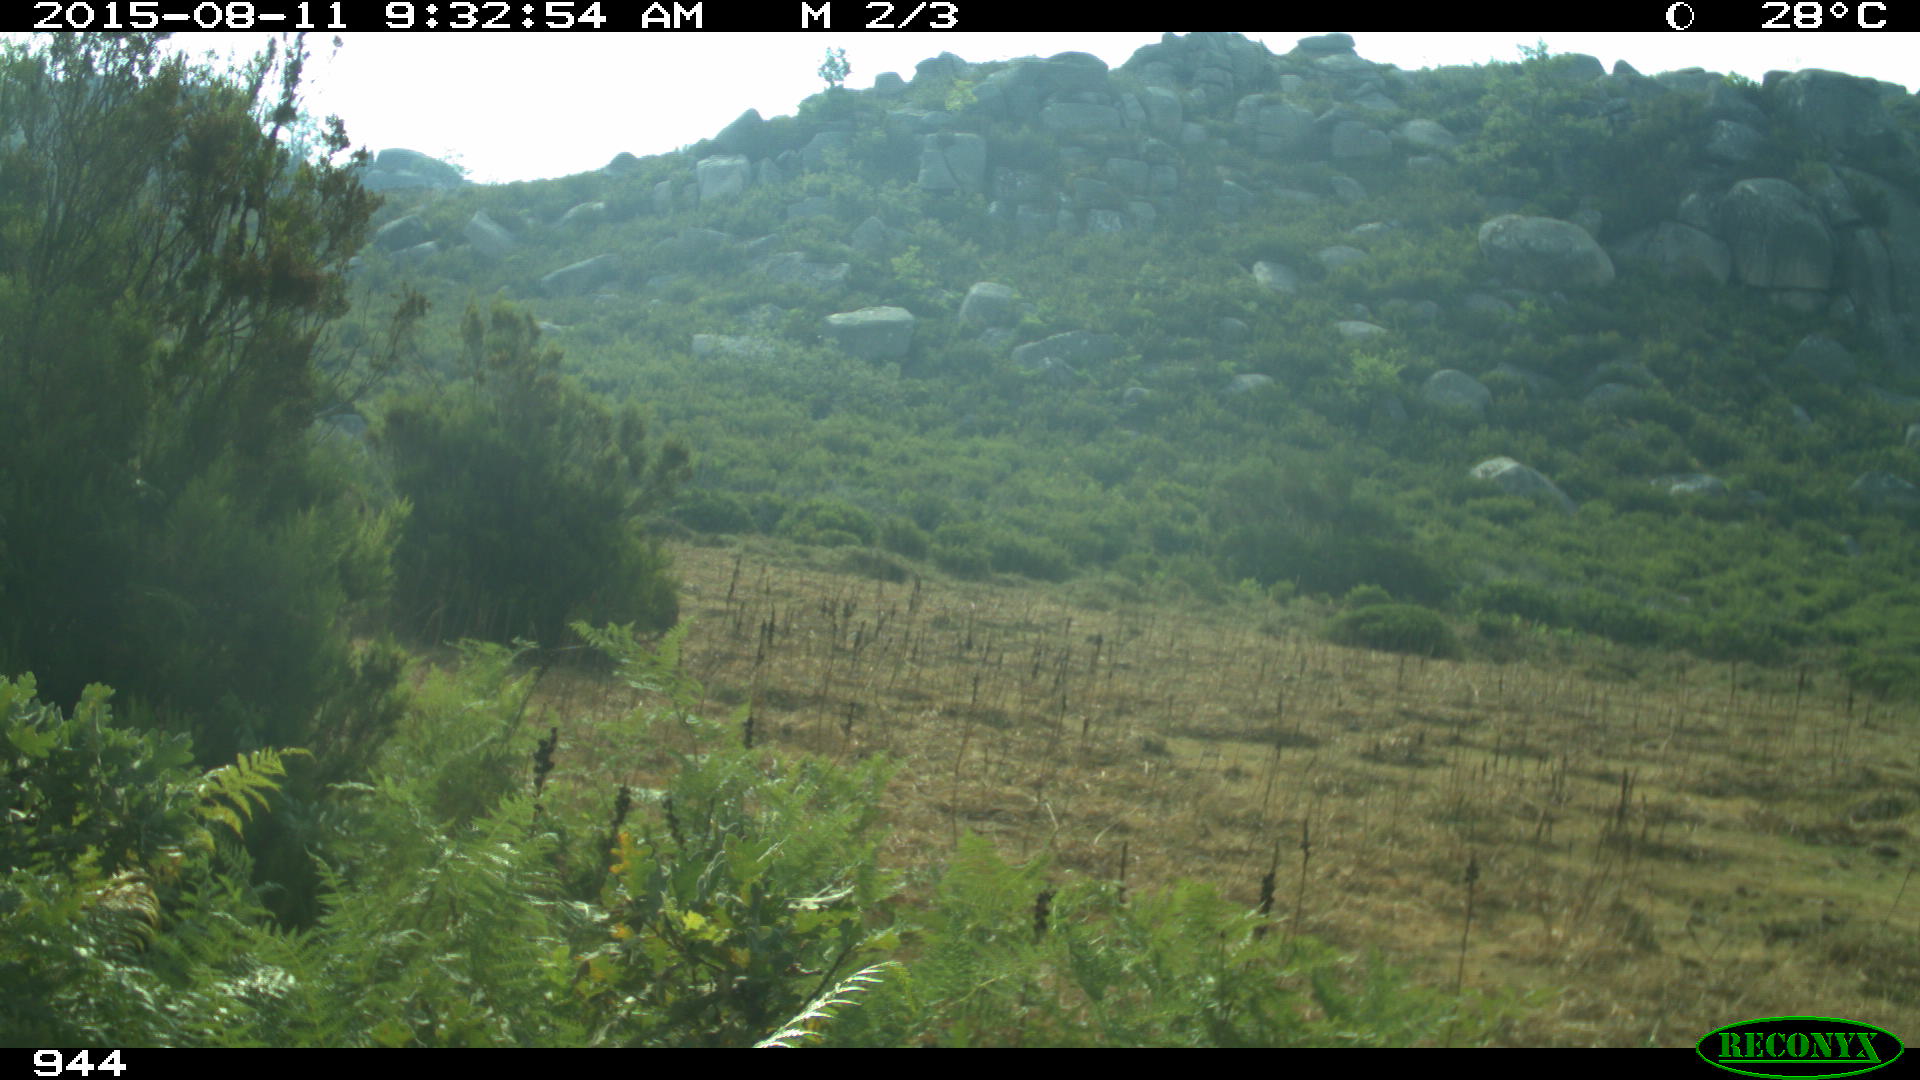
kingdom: Animalia
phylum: Chordata
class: Mammalia
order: Artiodactyla
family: Bovidae
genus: Bos
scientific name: Bos taurus
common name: Domesticated cattle
